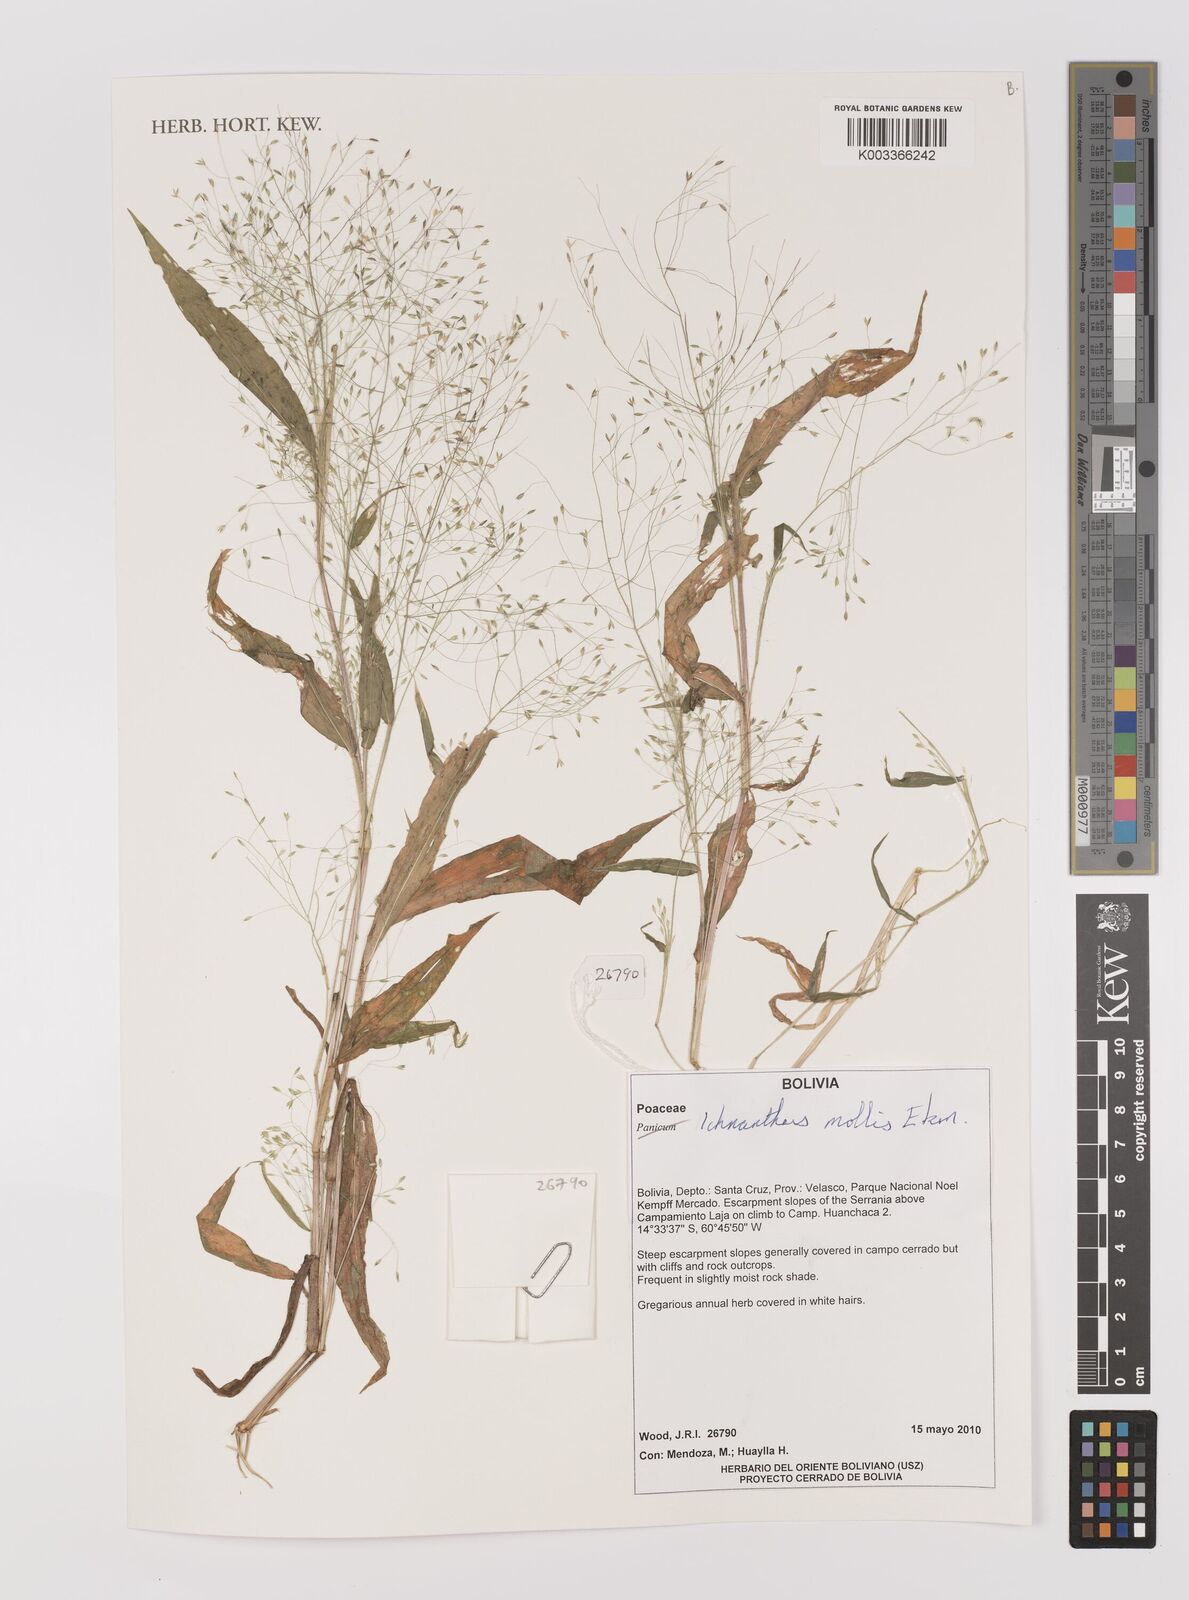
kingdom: Plantae
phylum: Tracheophyta
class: Liliopsida
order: Poales
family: Poaceae
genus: Ichnanthus
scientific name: Ichnanthus mollis
